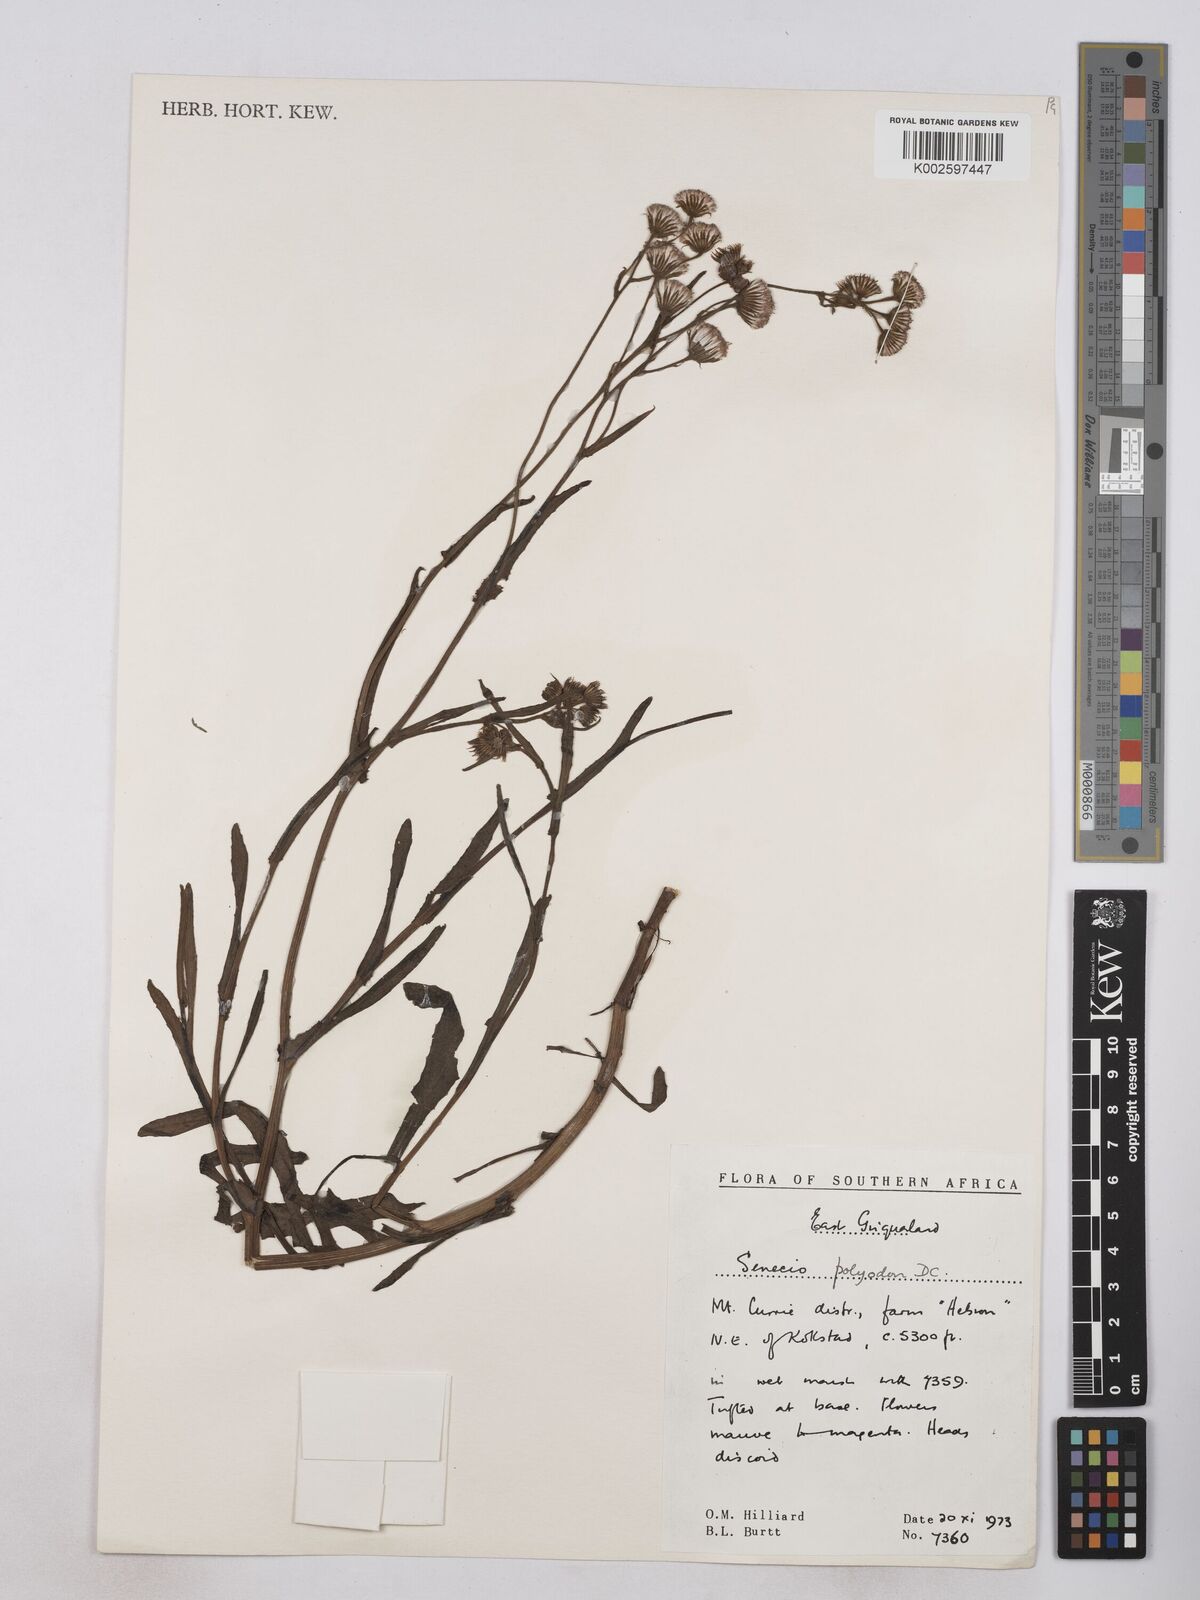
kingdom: Plantae
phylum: Tracheophyta
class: Magnoliopsida
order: Asterales
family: Asteraceae
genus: Senecio
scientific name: Senecio polyodon
